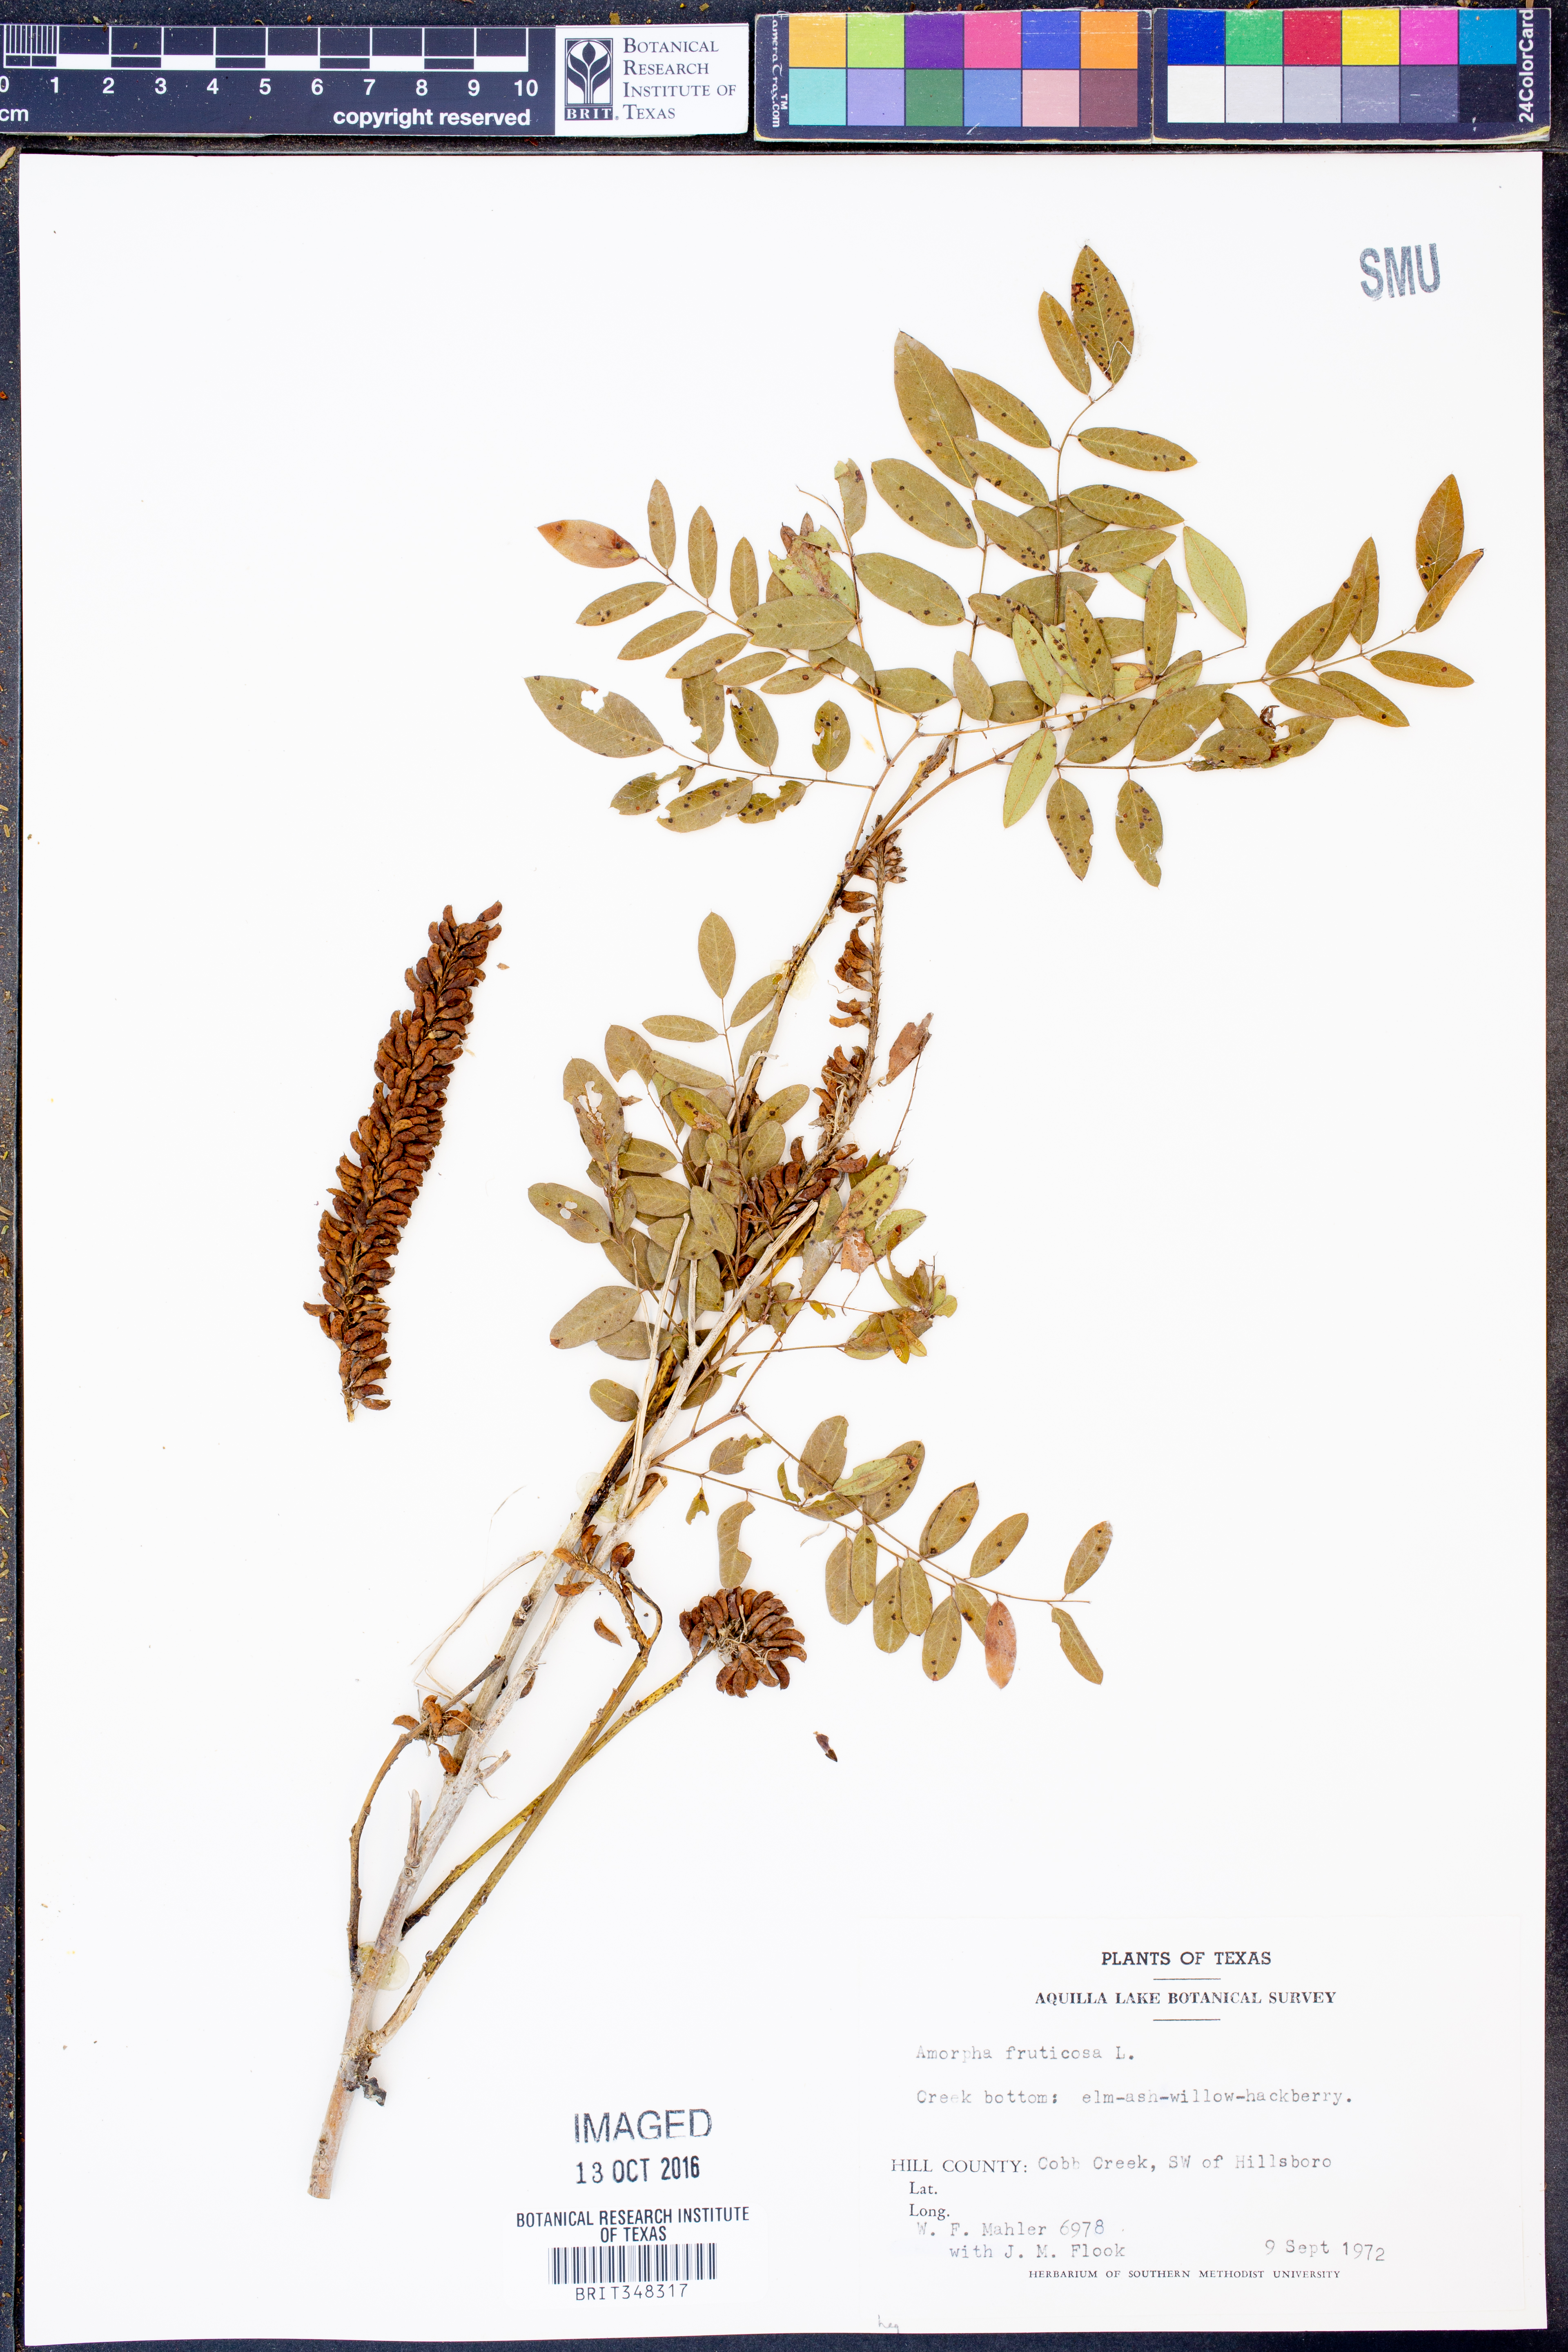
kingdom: Plantae
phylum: Tracheophyta
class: Magnoliopsida
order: Fabales
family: Fabaceae
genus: Amorpha
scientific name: Amorpha fruticosa
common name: False indigo
